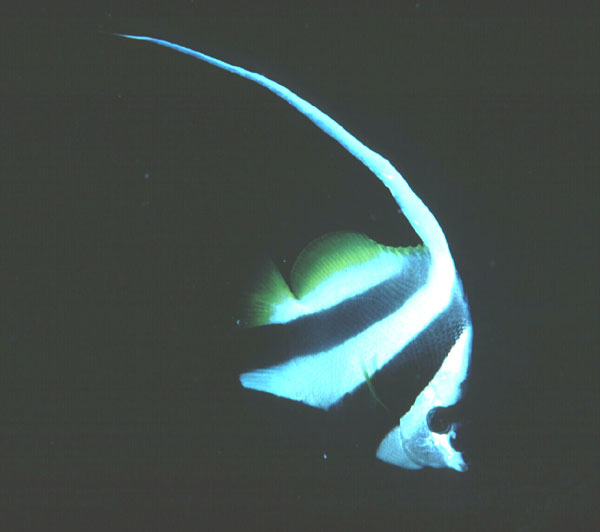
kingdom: Animalia
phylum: Chordata
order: Perciformes
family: Chaetodontidae
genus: Heniochus
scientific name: Heniochus acuminatus
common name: Pennant coralfish
